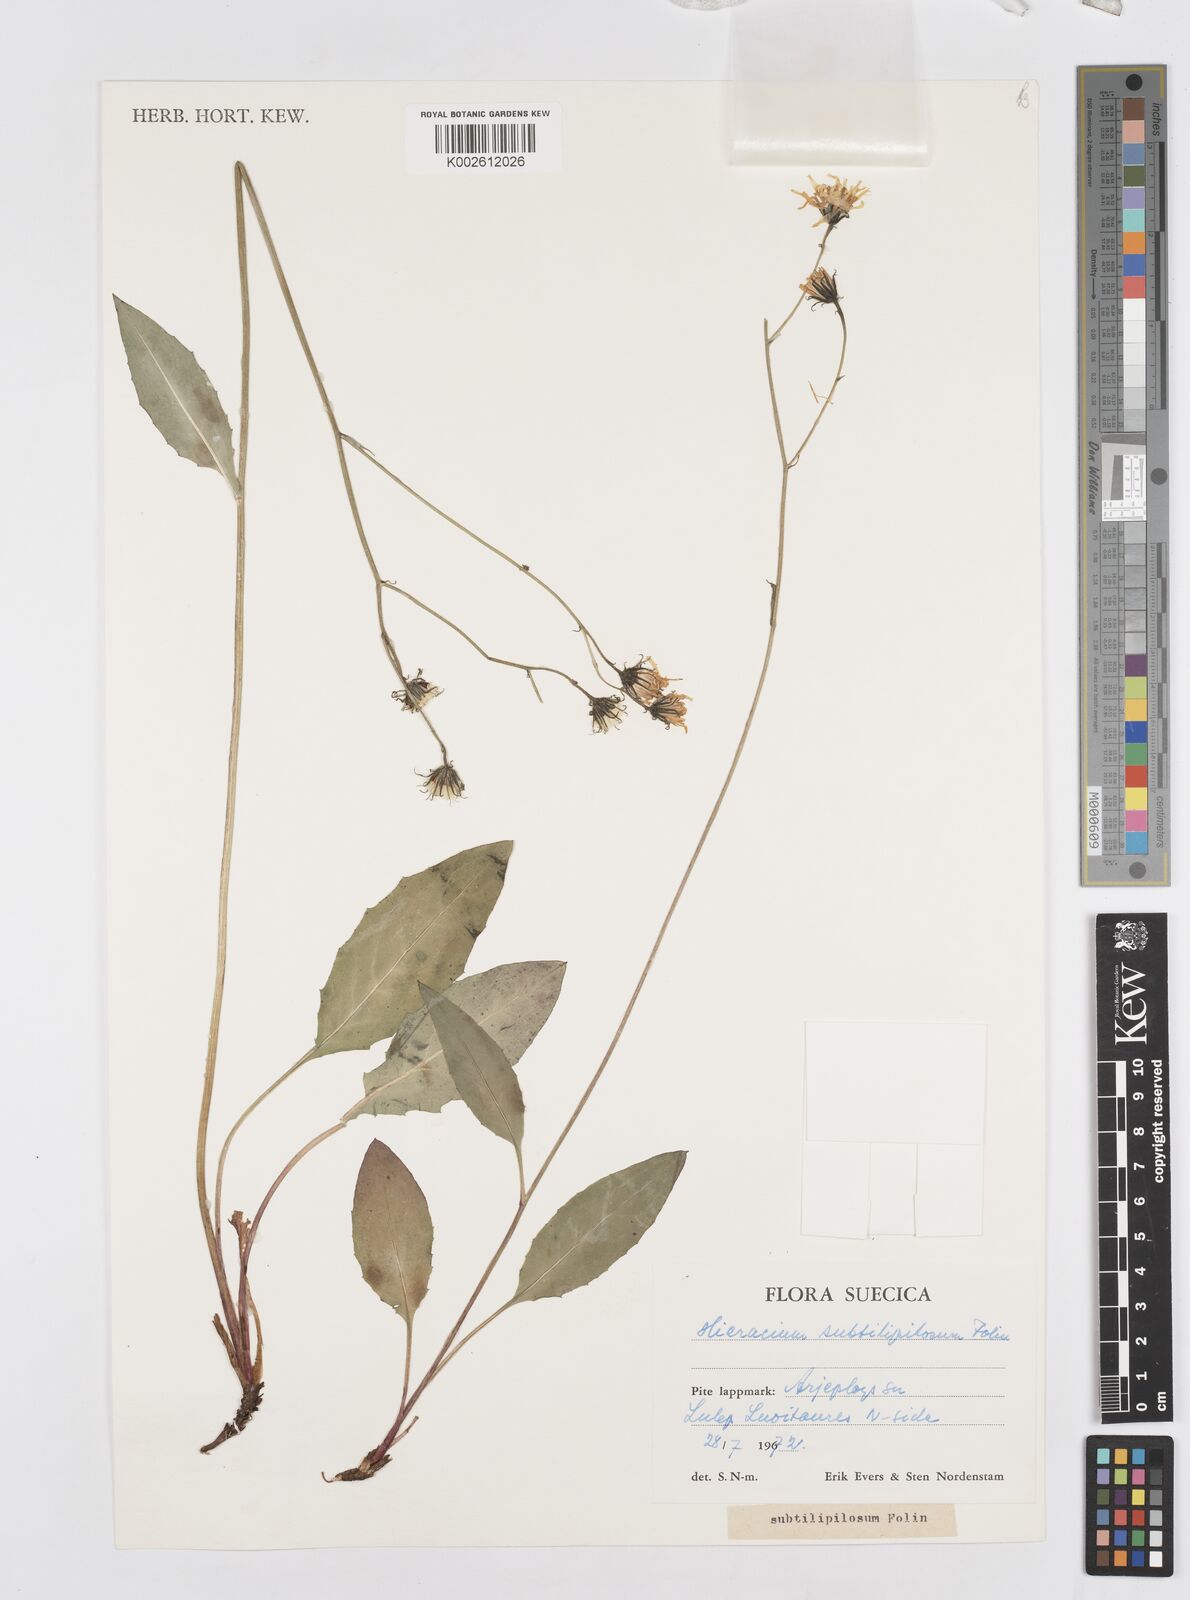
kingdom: Plantae
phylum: Tracheophyta
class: Magnoliopsida
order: Asterales
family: Asteraceae
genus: Hieracium
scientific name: Hieracium subtilipilosum
